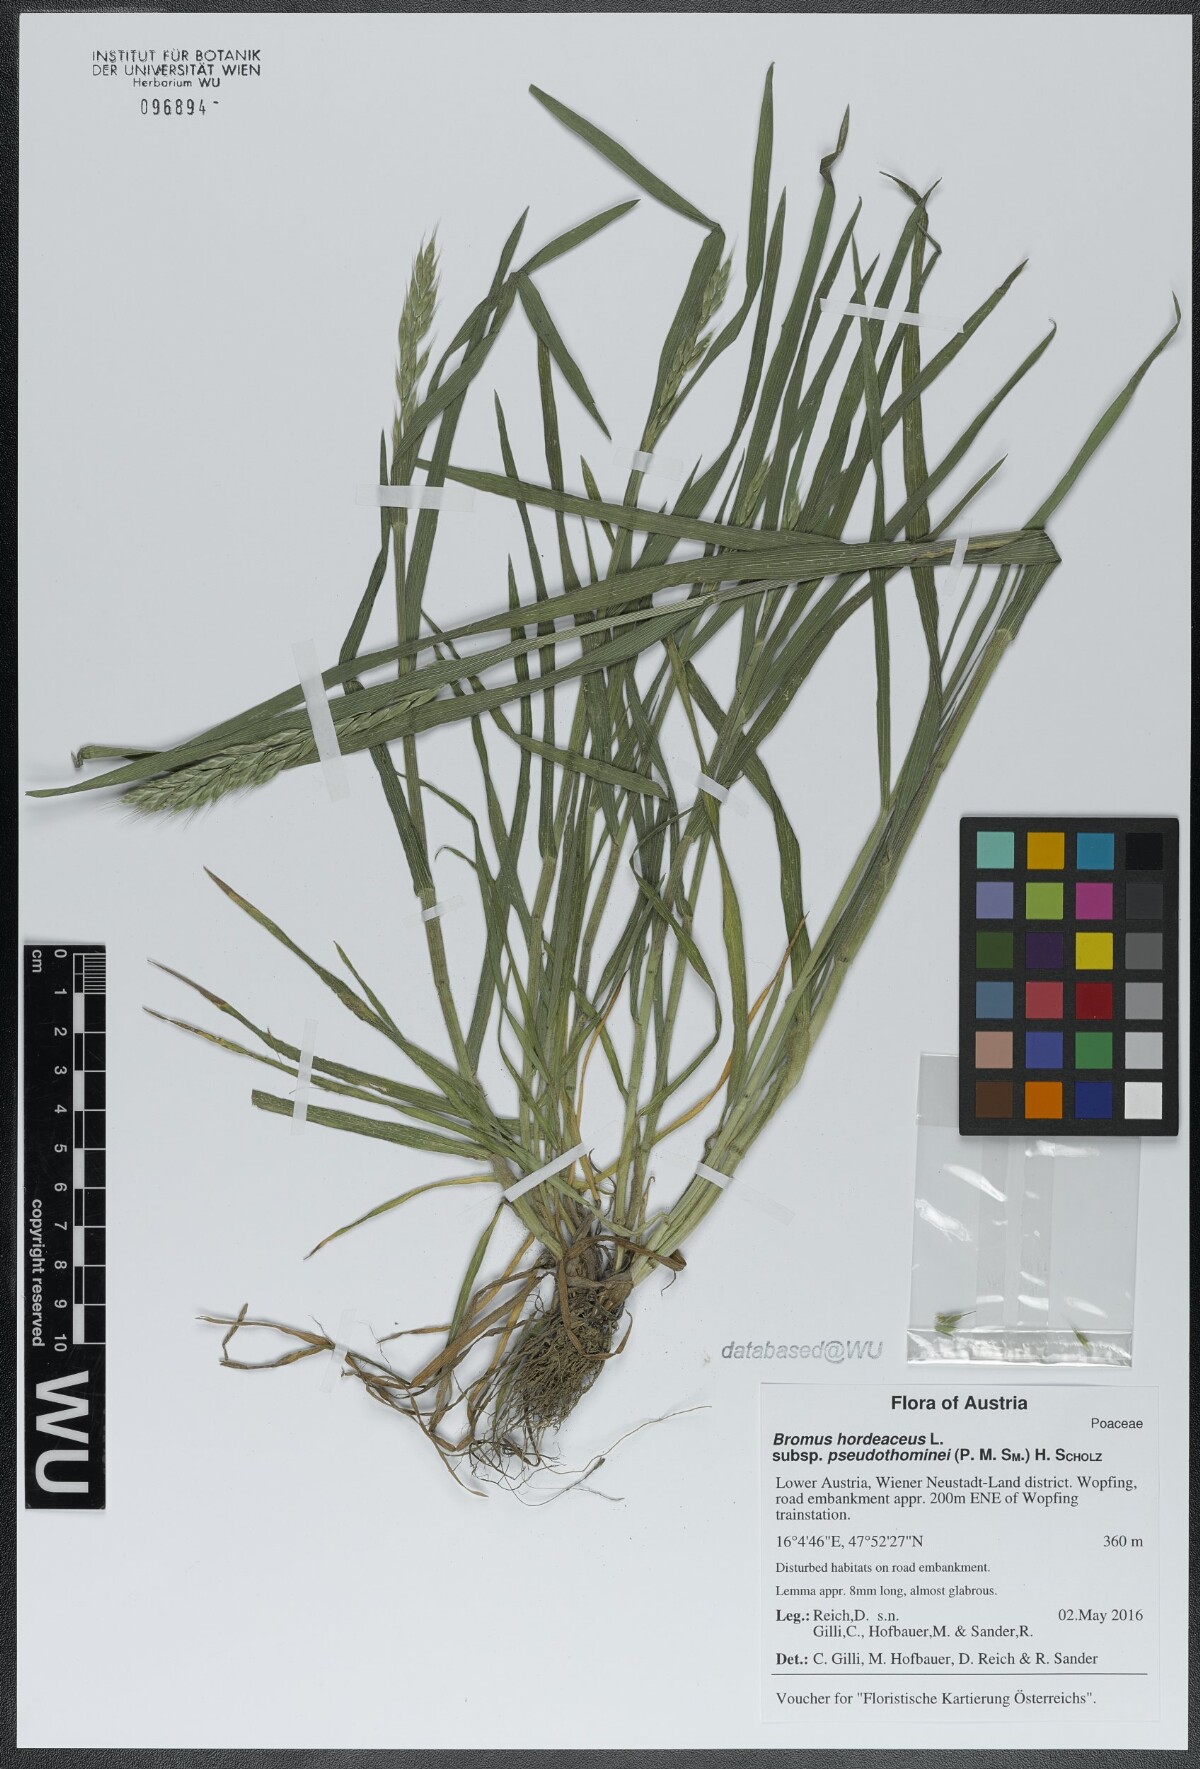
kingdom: Plantae
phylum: Tracheophyta
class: Liliopsida
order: Poales
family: Poaceae
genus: Bromus
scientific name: Bromus ferronii
